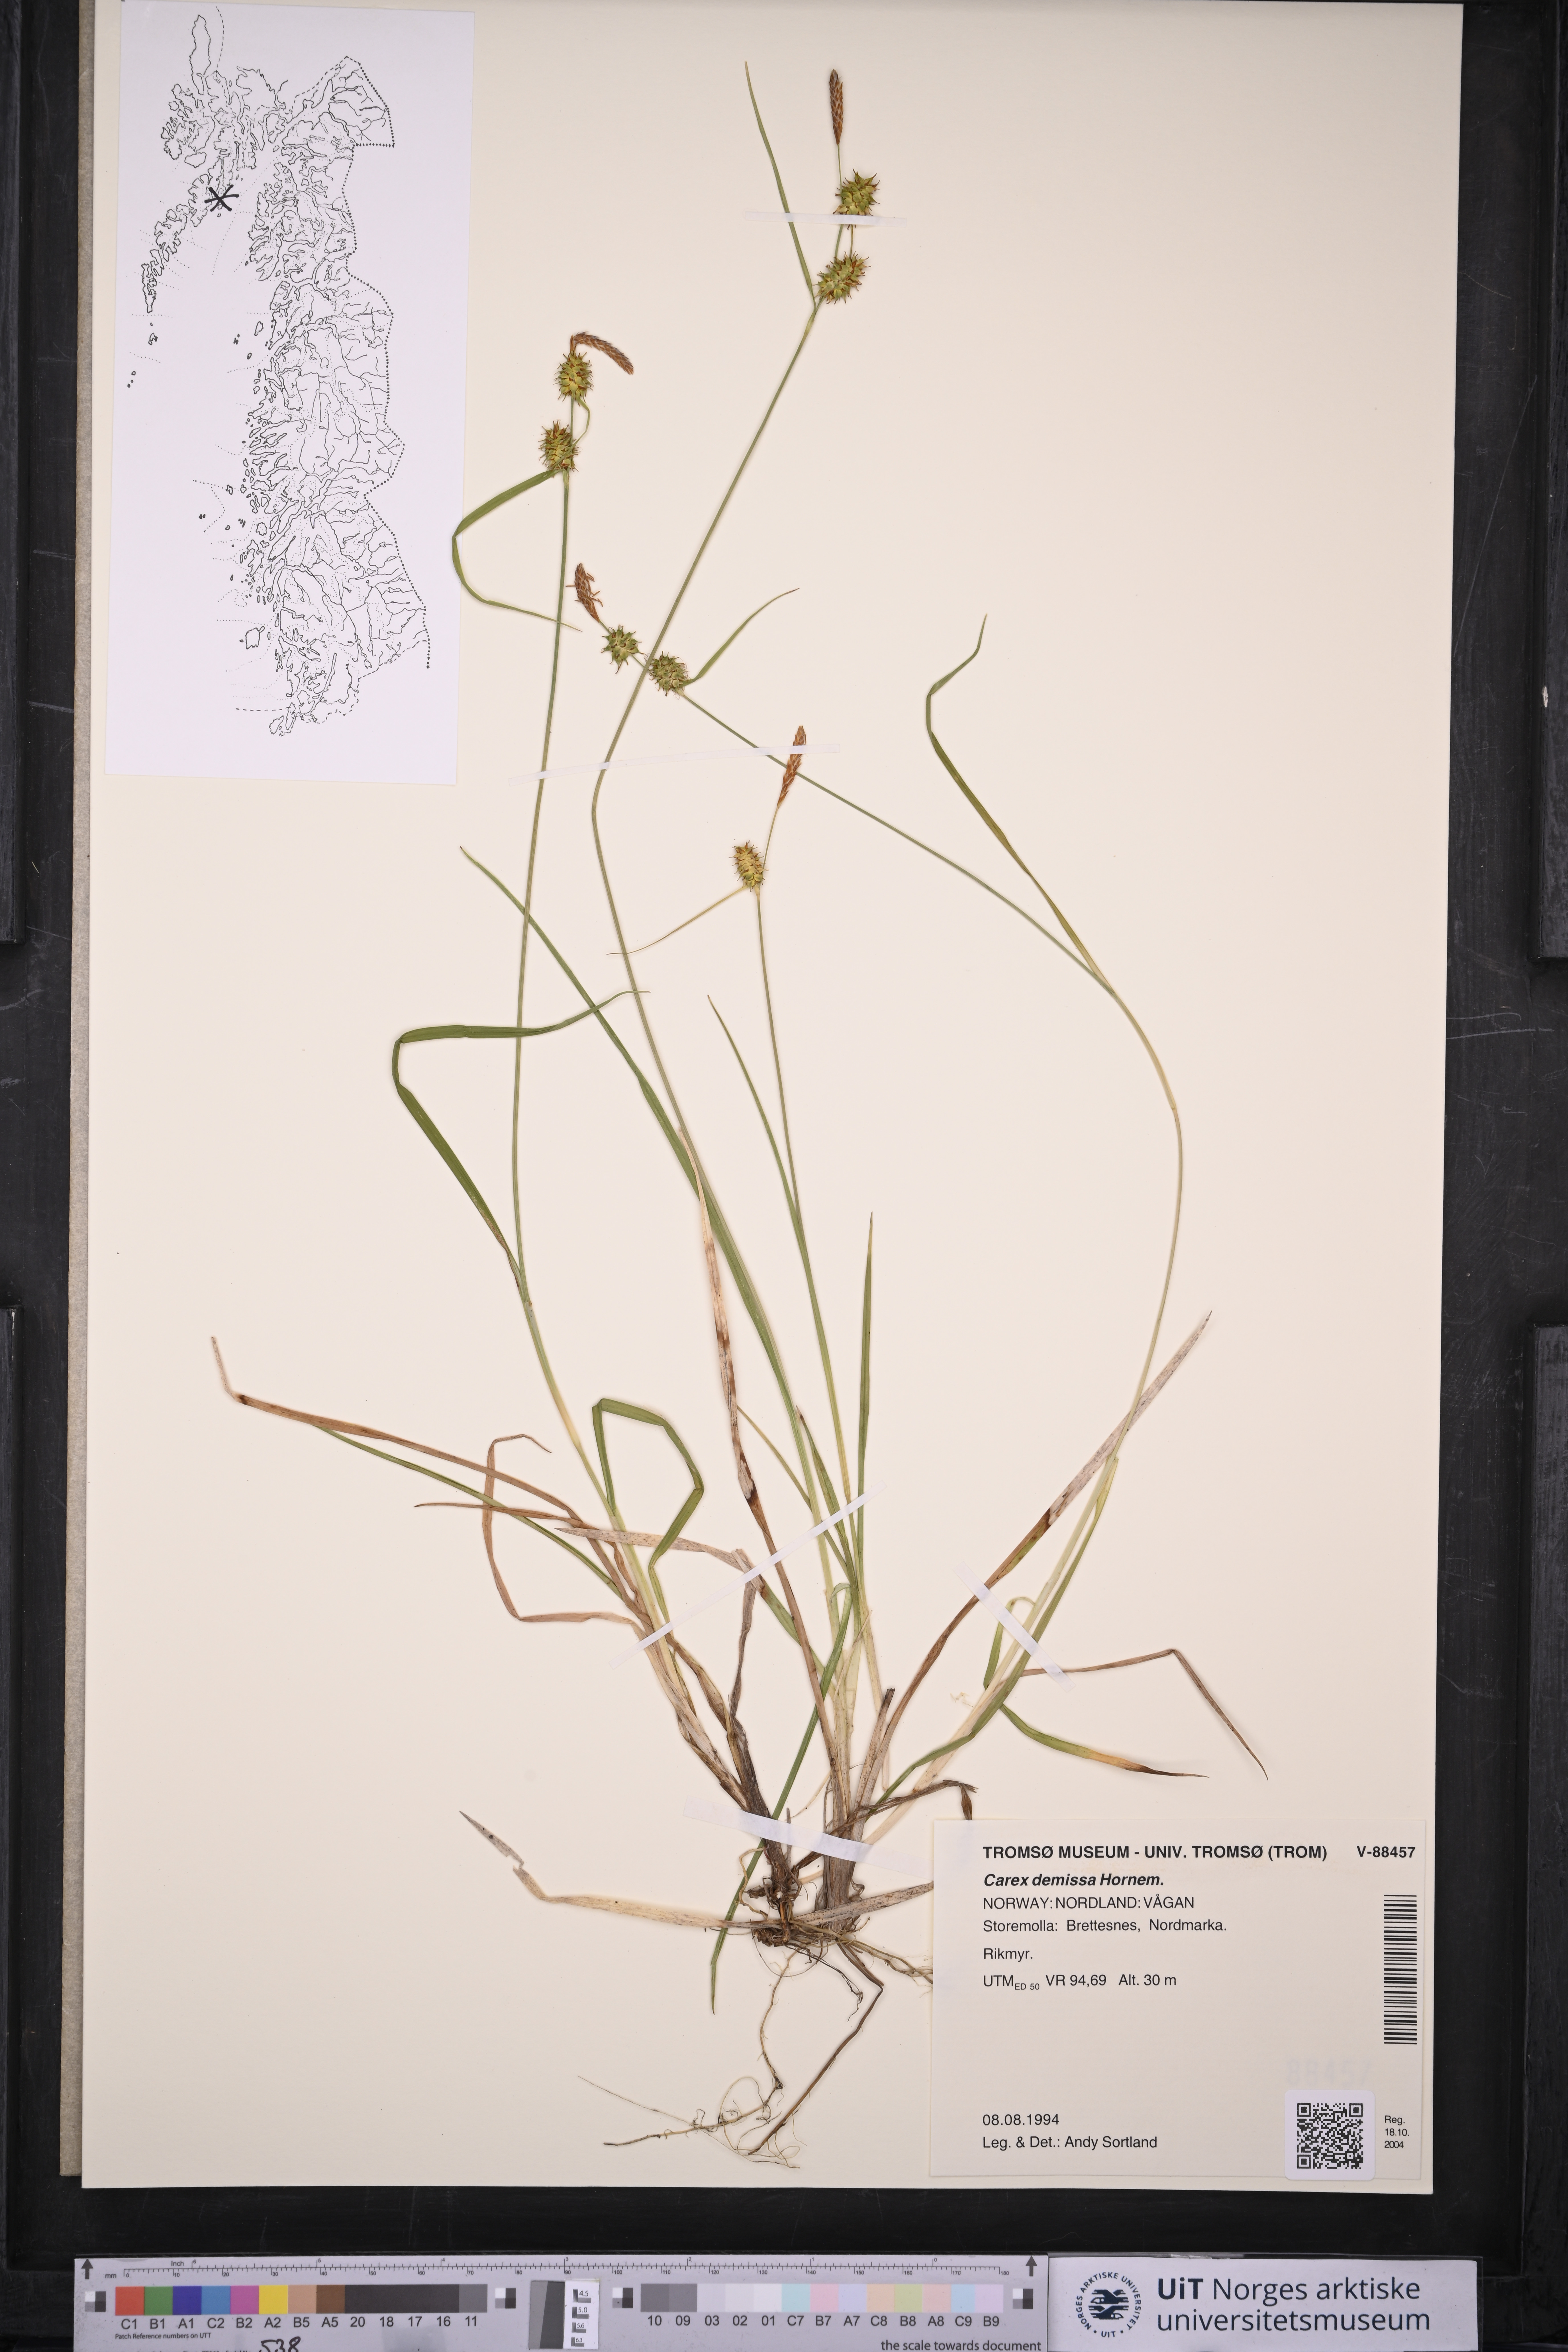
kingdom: Plantae
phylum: Tracheophyta
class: Liliopsida
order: Poales
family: Cyperaceae
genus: Carex
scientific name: Carex demissa
